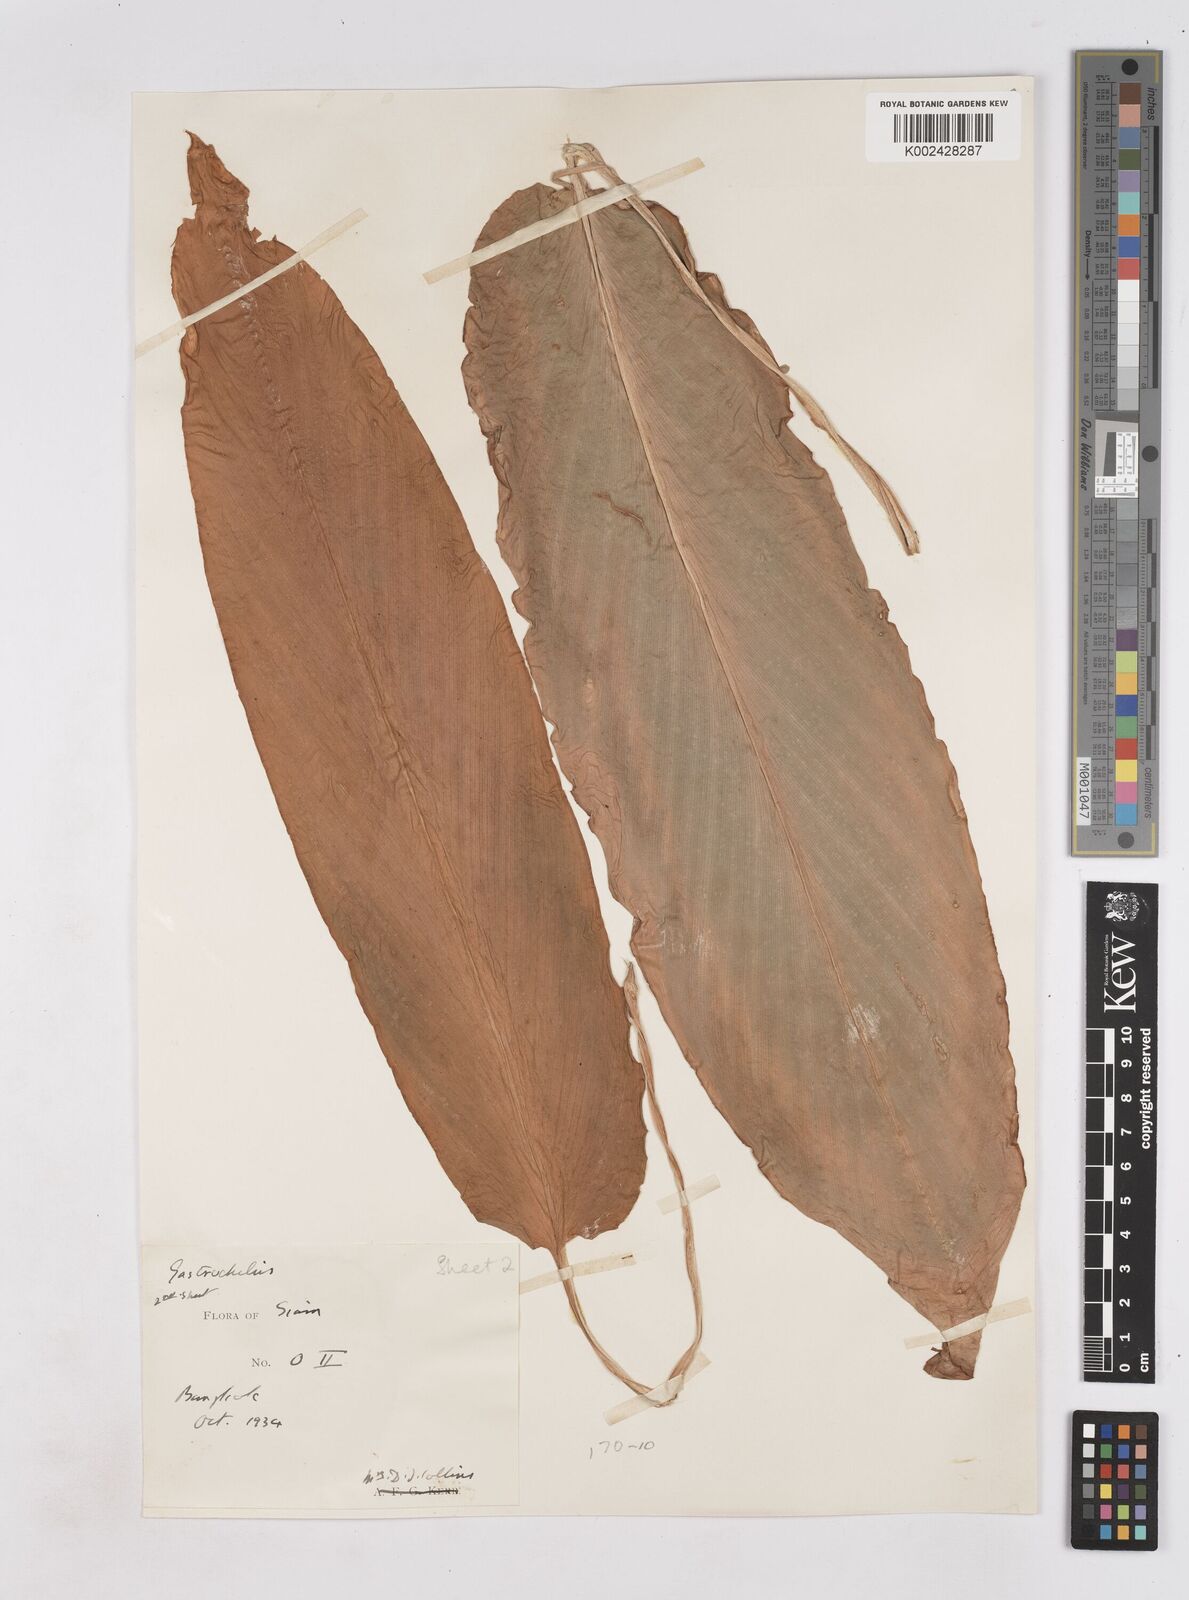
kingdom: Plantae
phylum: Tracheophyta
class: Liliopsida
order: Zingiberales
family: Zingiberaceae
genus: Boesenbergia
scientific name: Boesenbergia longiflora
